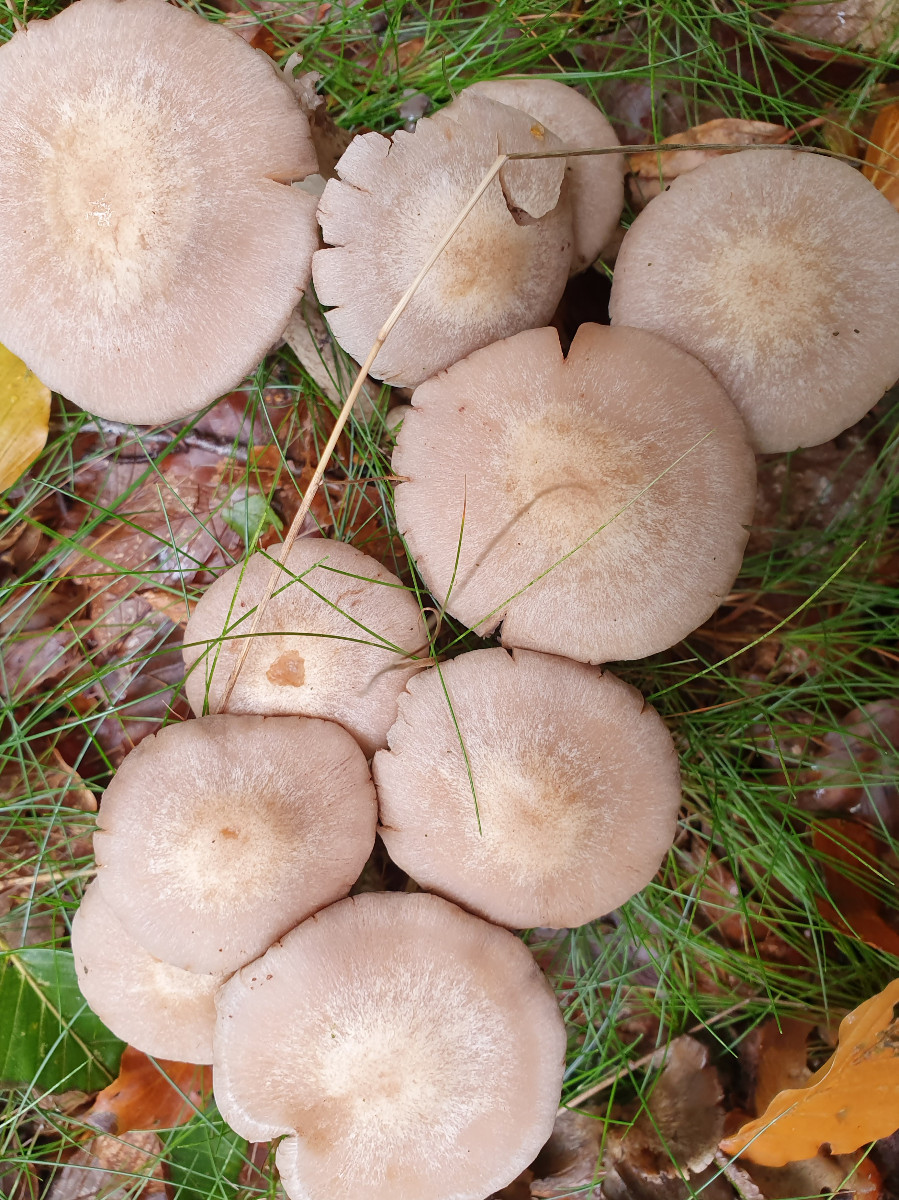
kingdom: Fungi
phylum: Basidiomycota
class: Agaricomycetes
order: Agaricales
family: Psathyrellaceae
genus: Psathyrella
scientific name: Psathyrella cotonea
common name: skællet mørkhat
